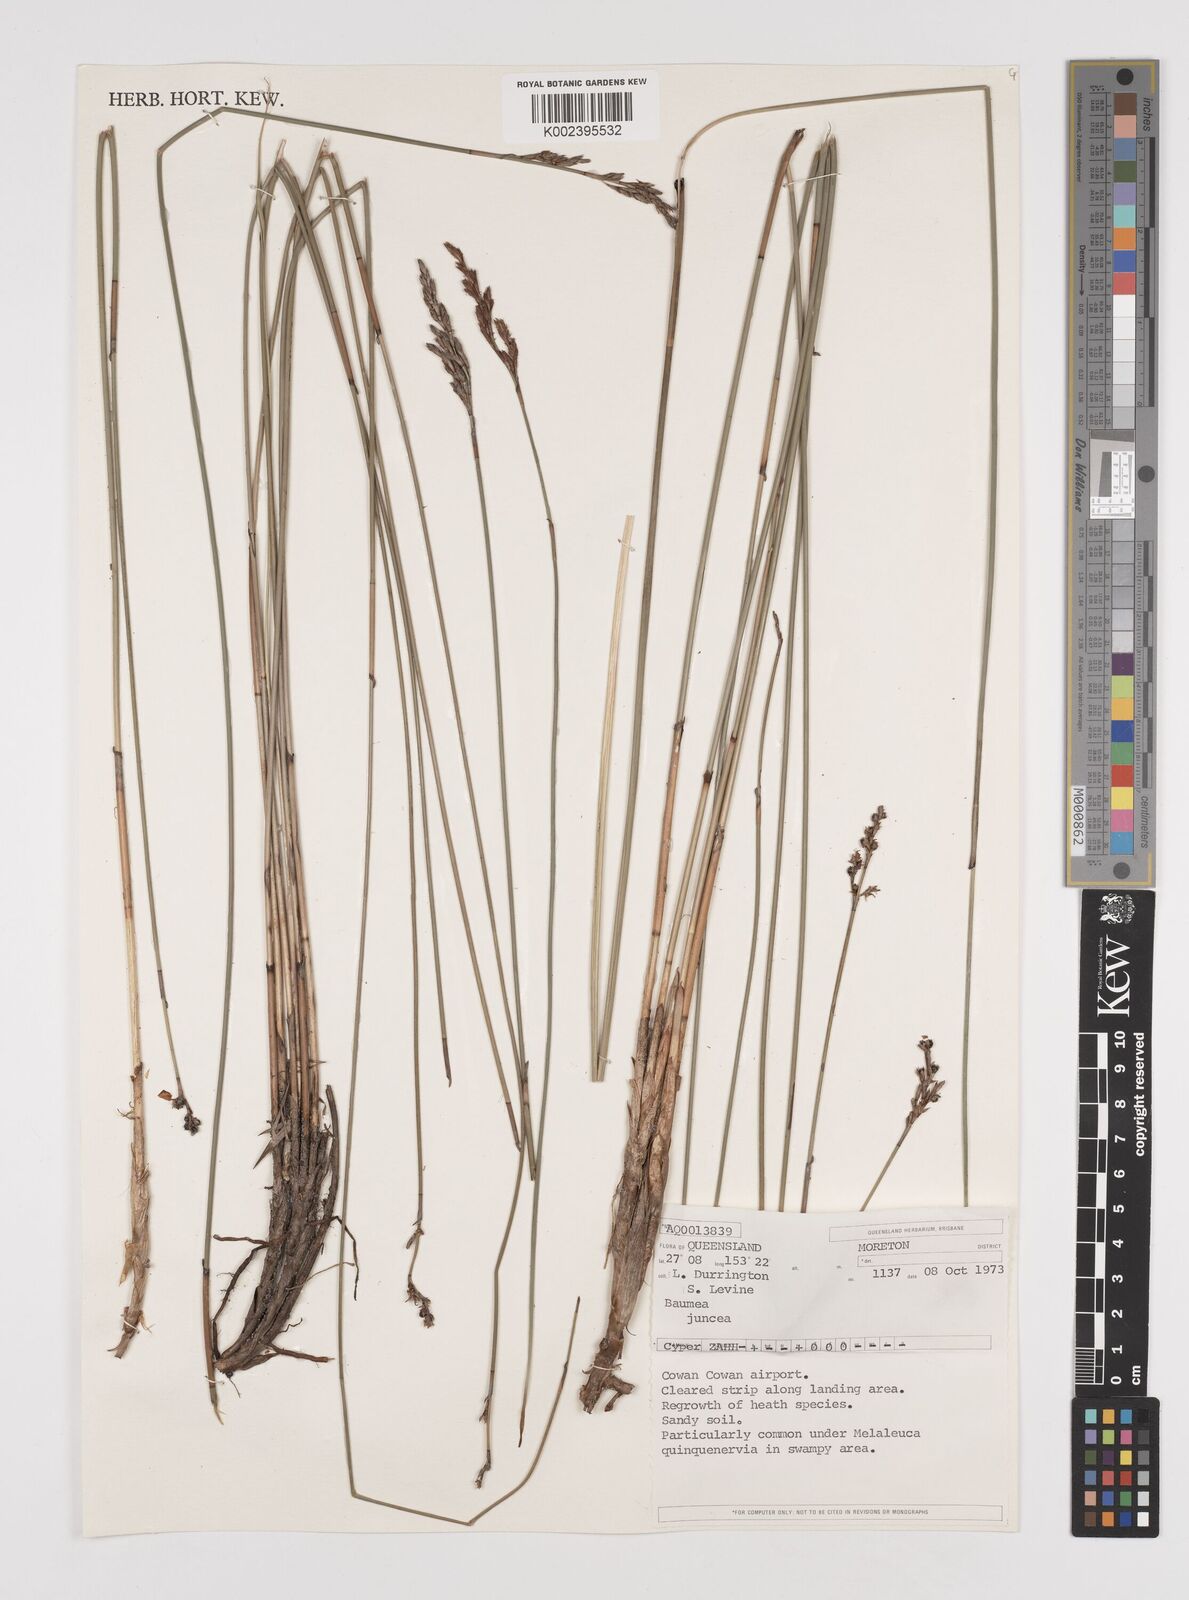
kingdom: Plantae
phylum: Tracheophyta
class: Liliopsida
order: Poales
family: Cyperaceae
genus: Machaerina
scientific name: Machaerina juncea
